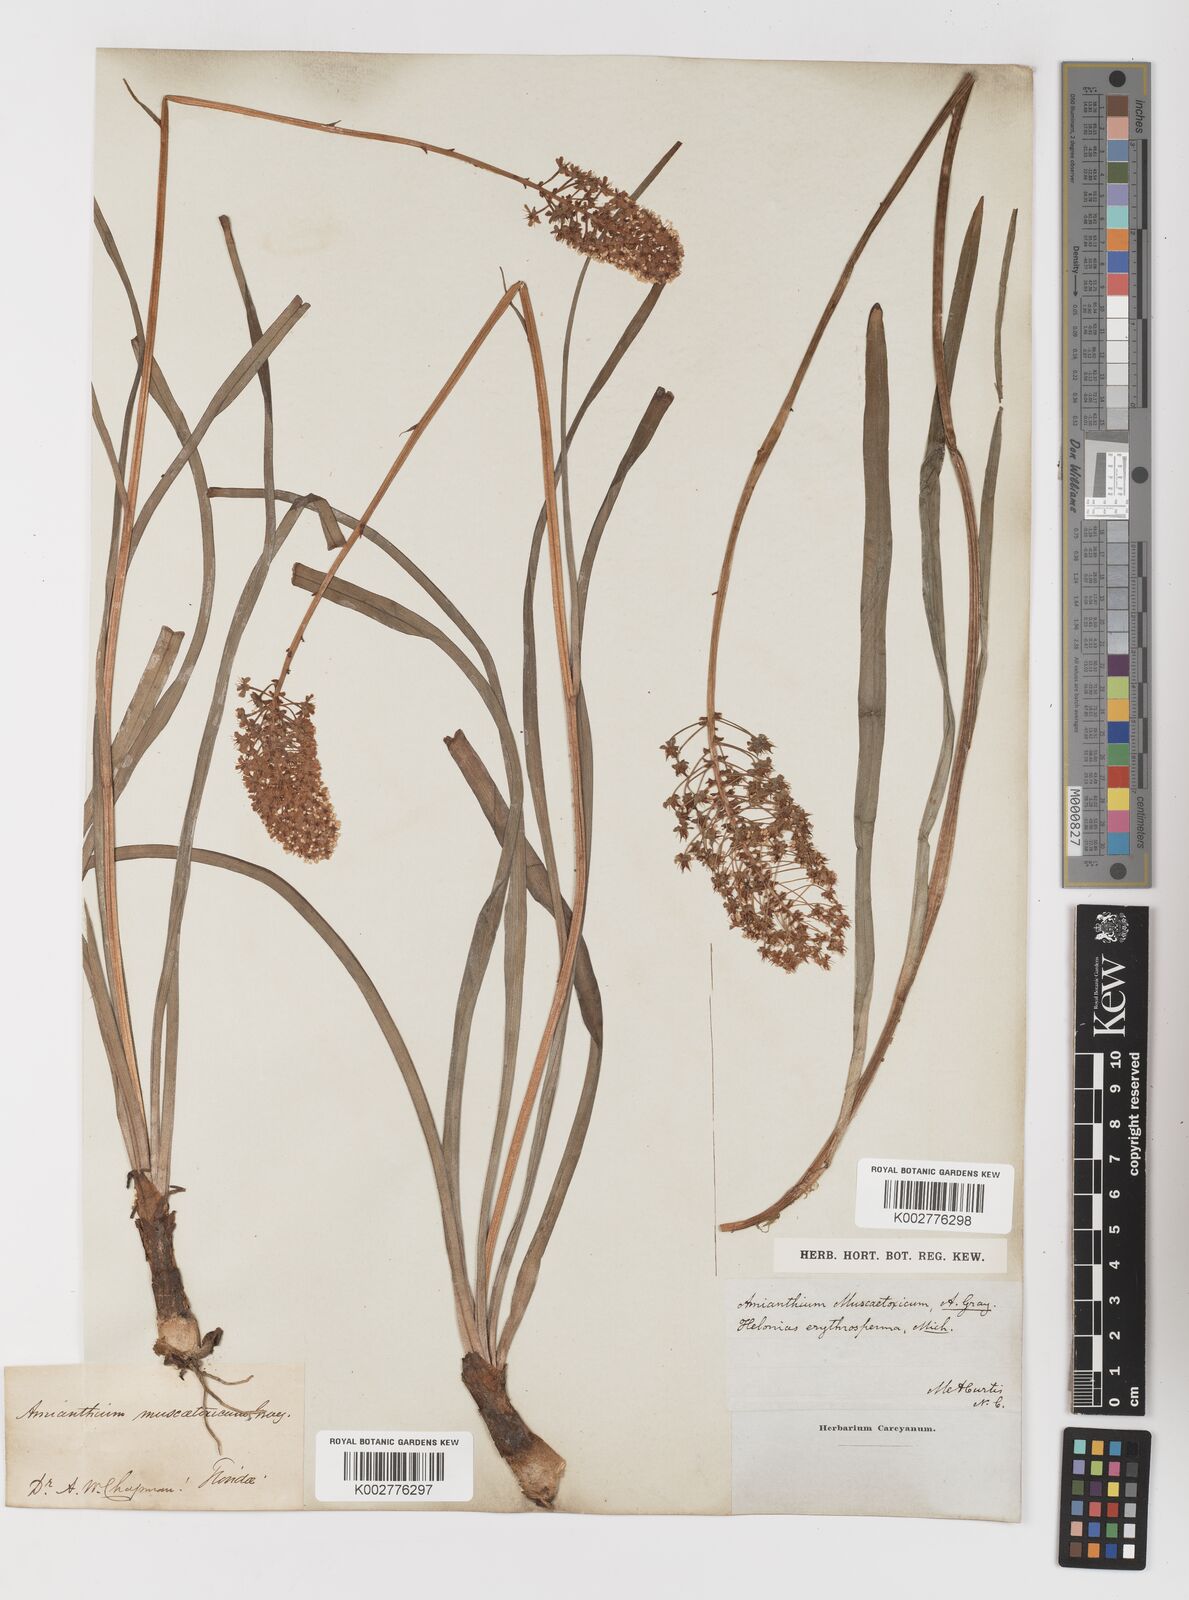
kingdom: Plantae
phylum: Tracheophyta
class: Liliopsida
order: Liliales
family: Melanthiaceae
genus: Amianthium
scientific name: Amianthium muscitoxicum
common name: Fly-poison
